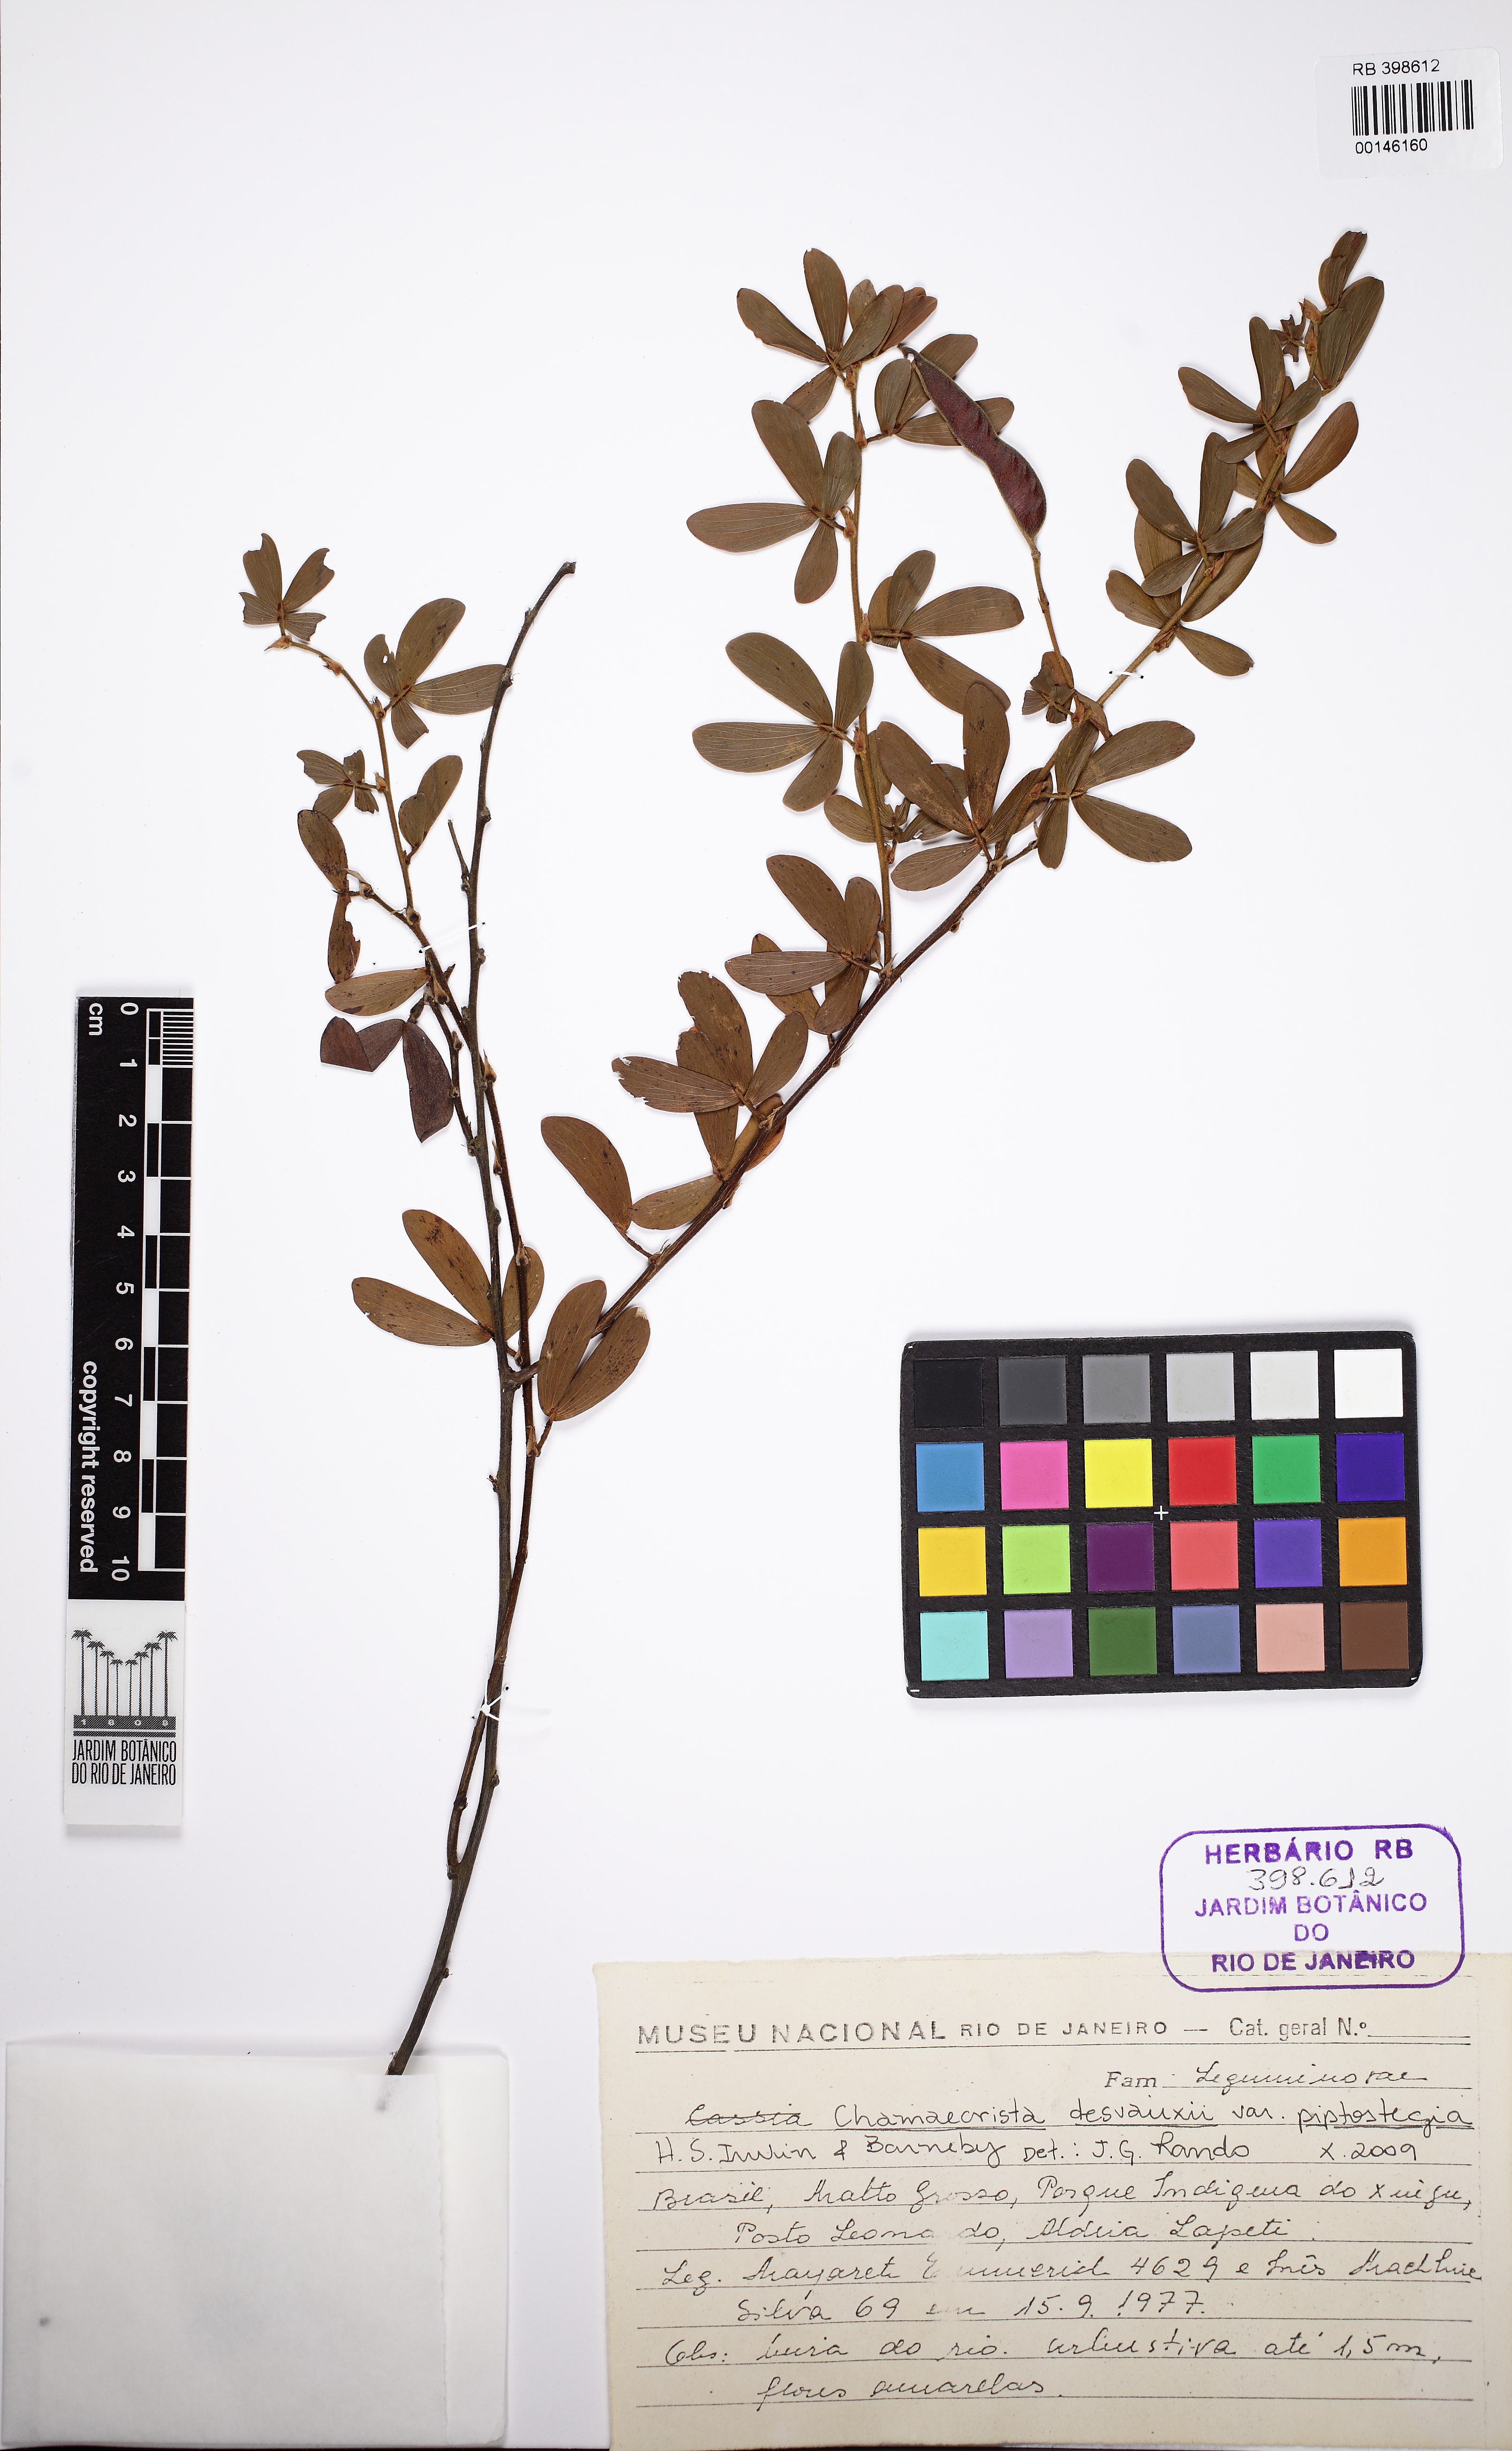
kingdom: Plantae
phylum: Tracheophyta
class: Magnoliopsida
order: Fabales
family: Fabaceae
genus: Chamaecrista
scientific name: Chamaecrista desvauxii
